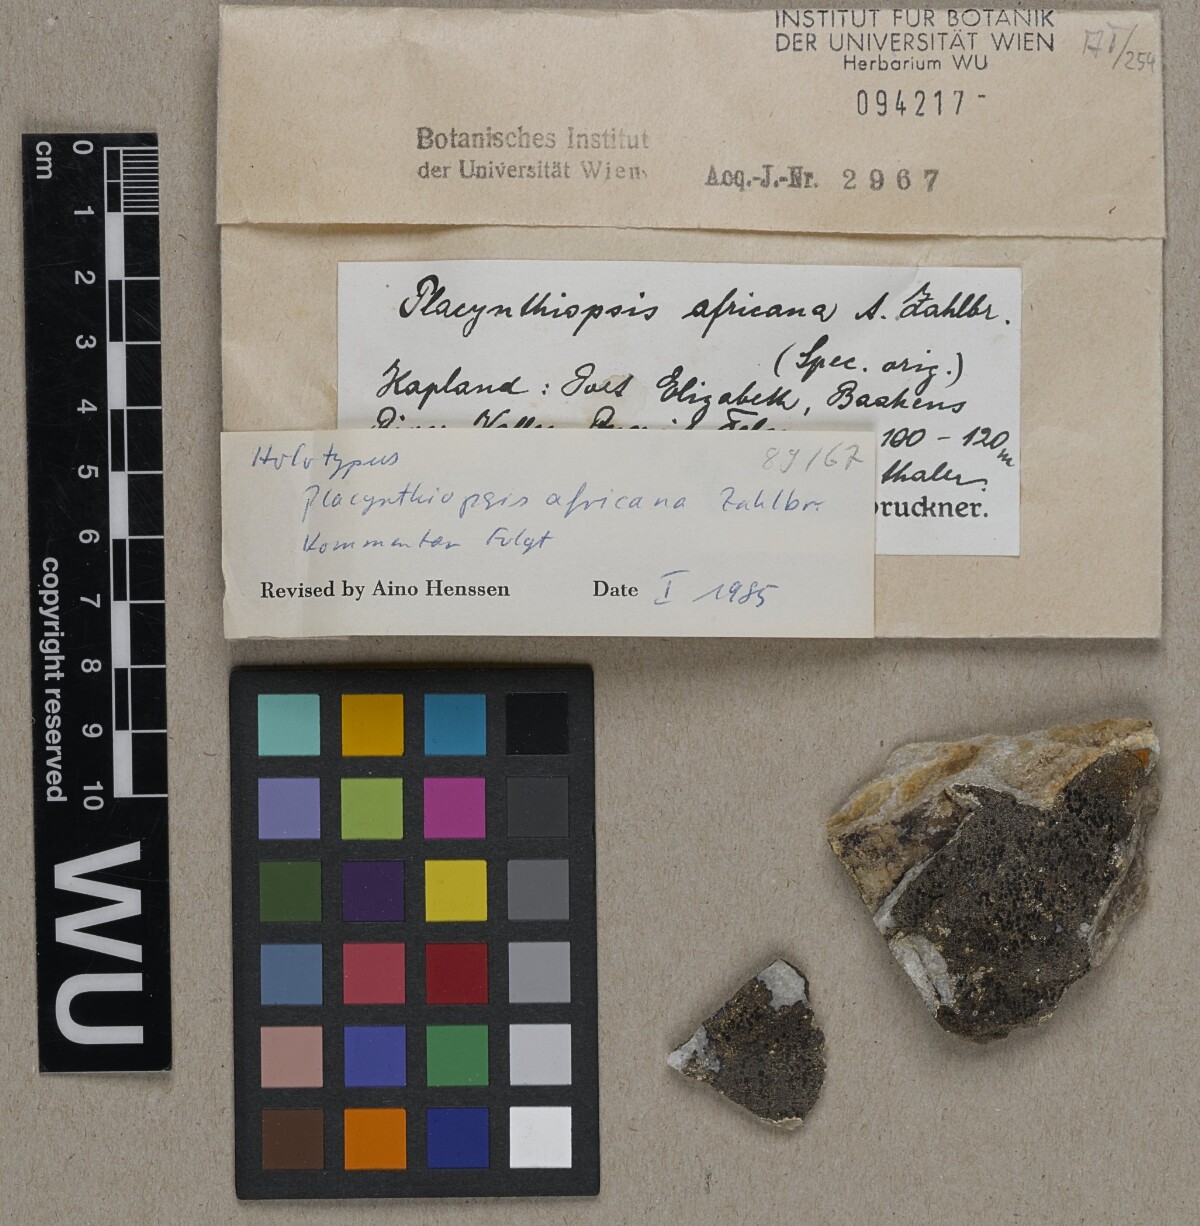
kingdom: Fungi
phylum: Ascomycota
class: Lecanoromycetes
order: Peltigerales
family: Placynthiaceae
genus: Placynthiopsis
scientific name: Placynthiopsis africana
